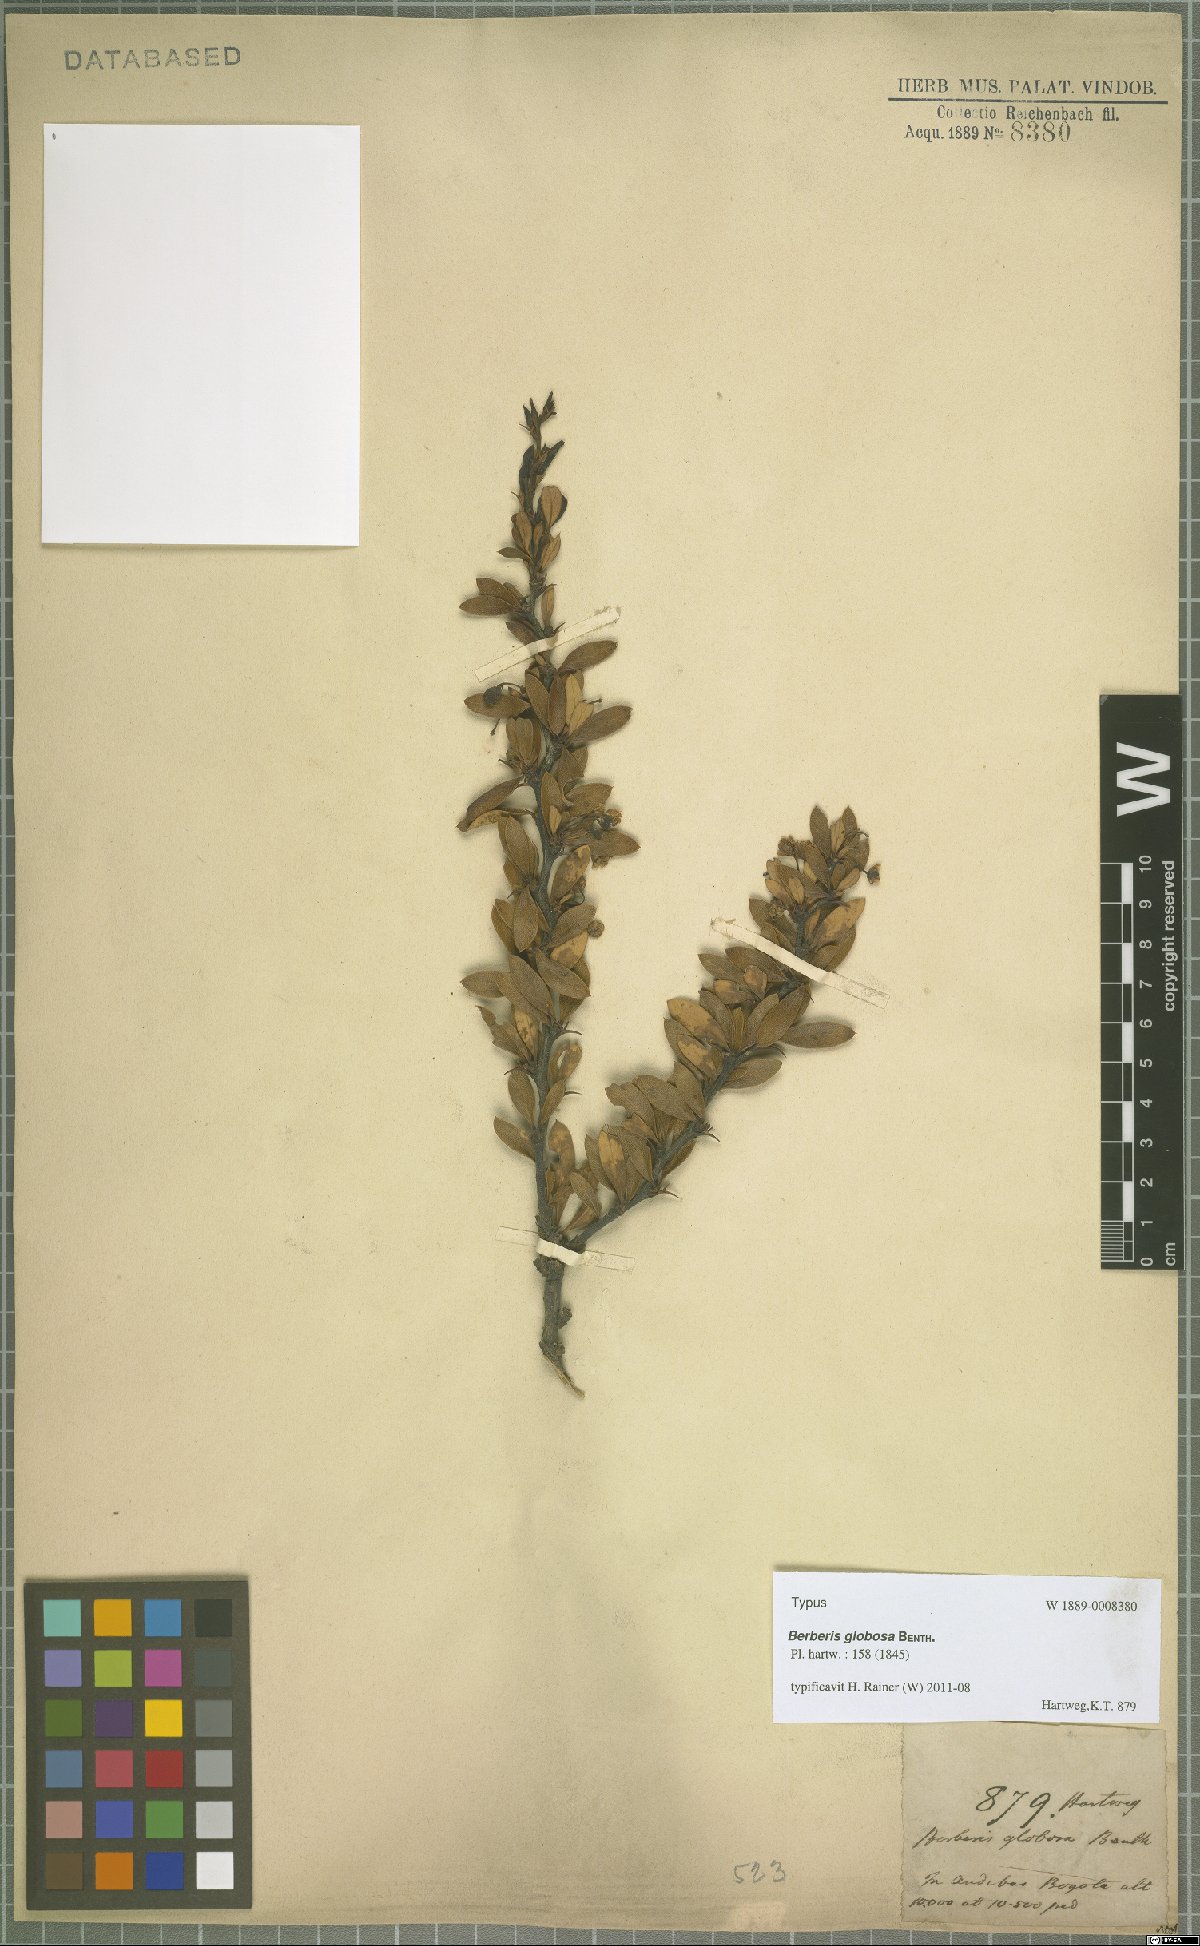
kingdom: Plantae
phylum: Tracheophyta
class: Magnoliopsida
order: Ranunculales
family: Berberidaceae
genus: Berberis
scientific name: Berberis rigidifolia
